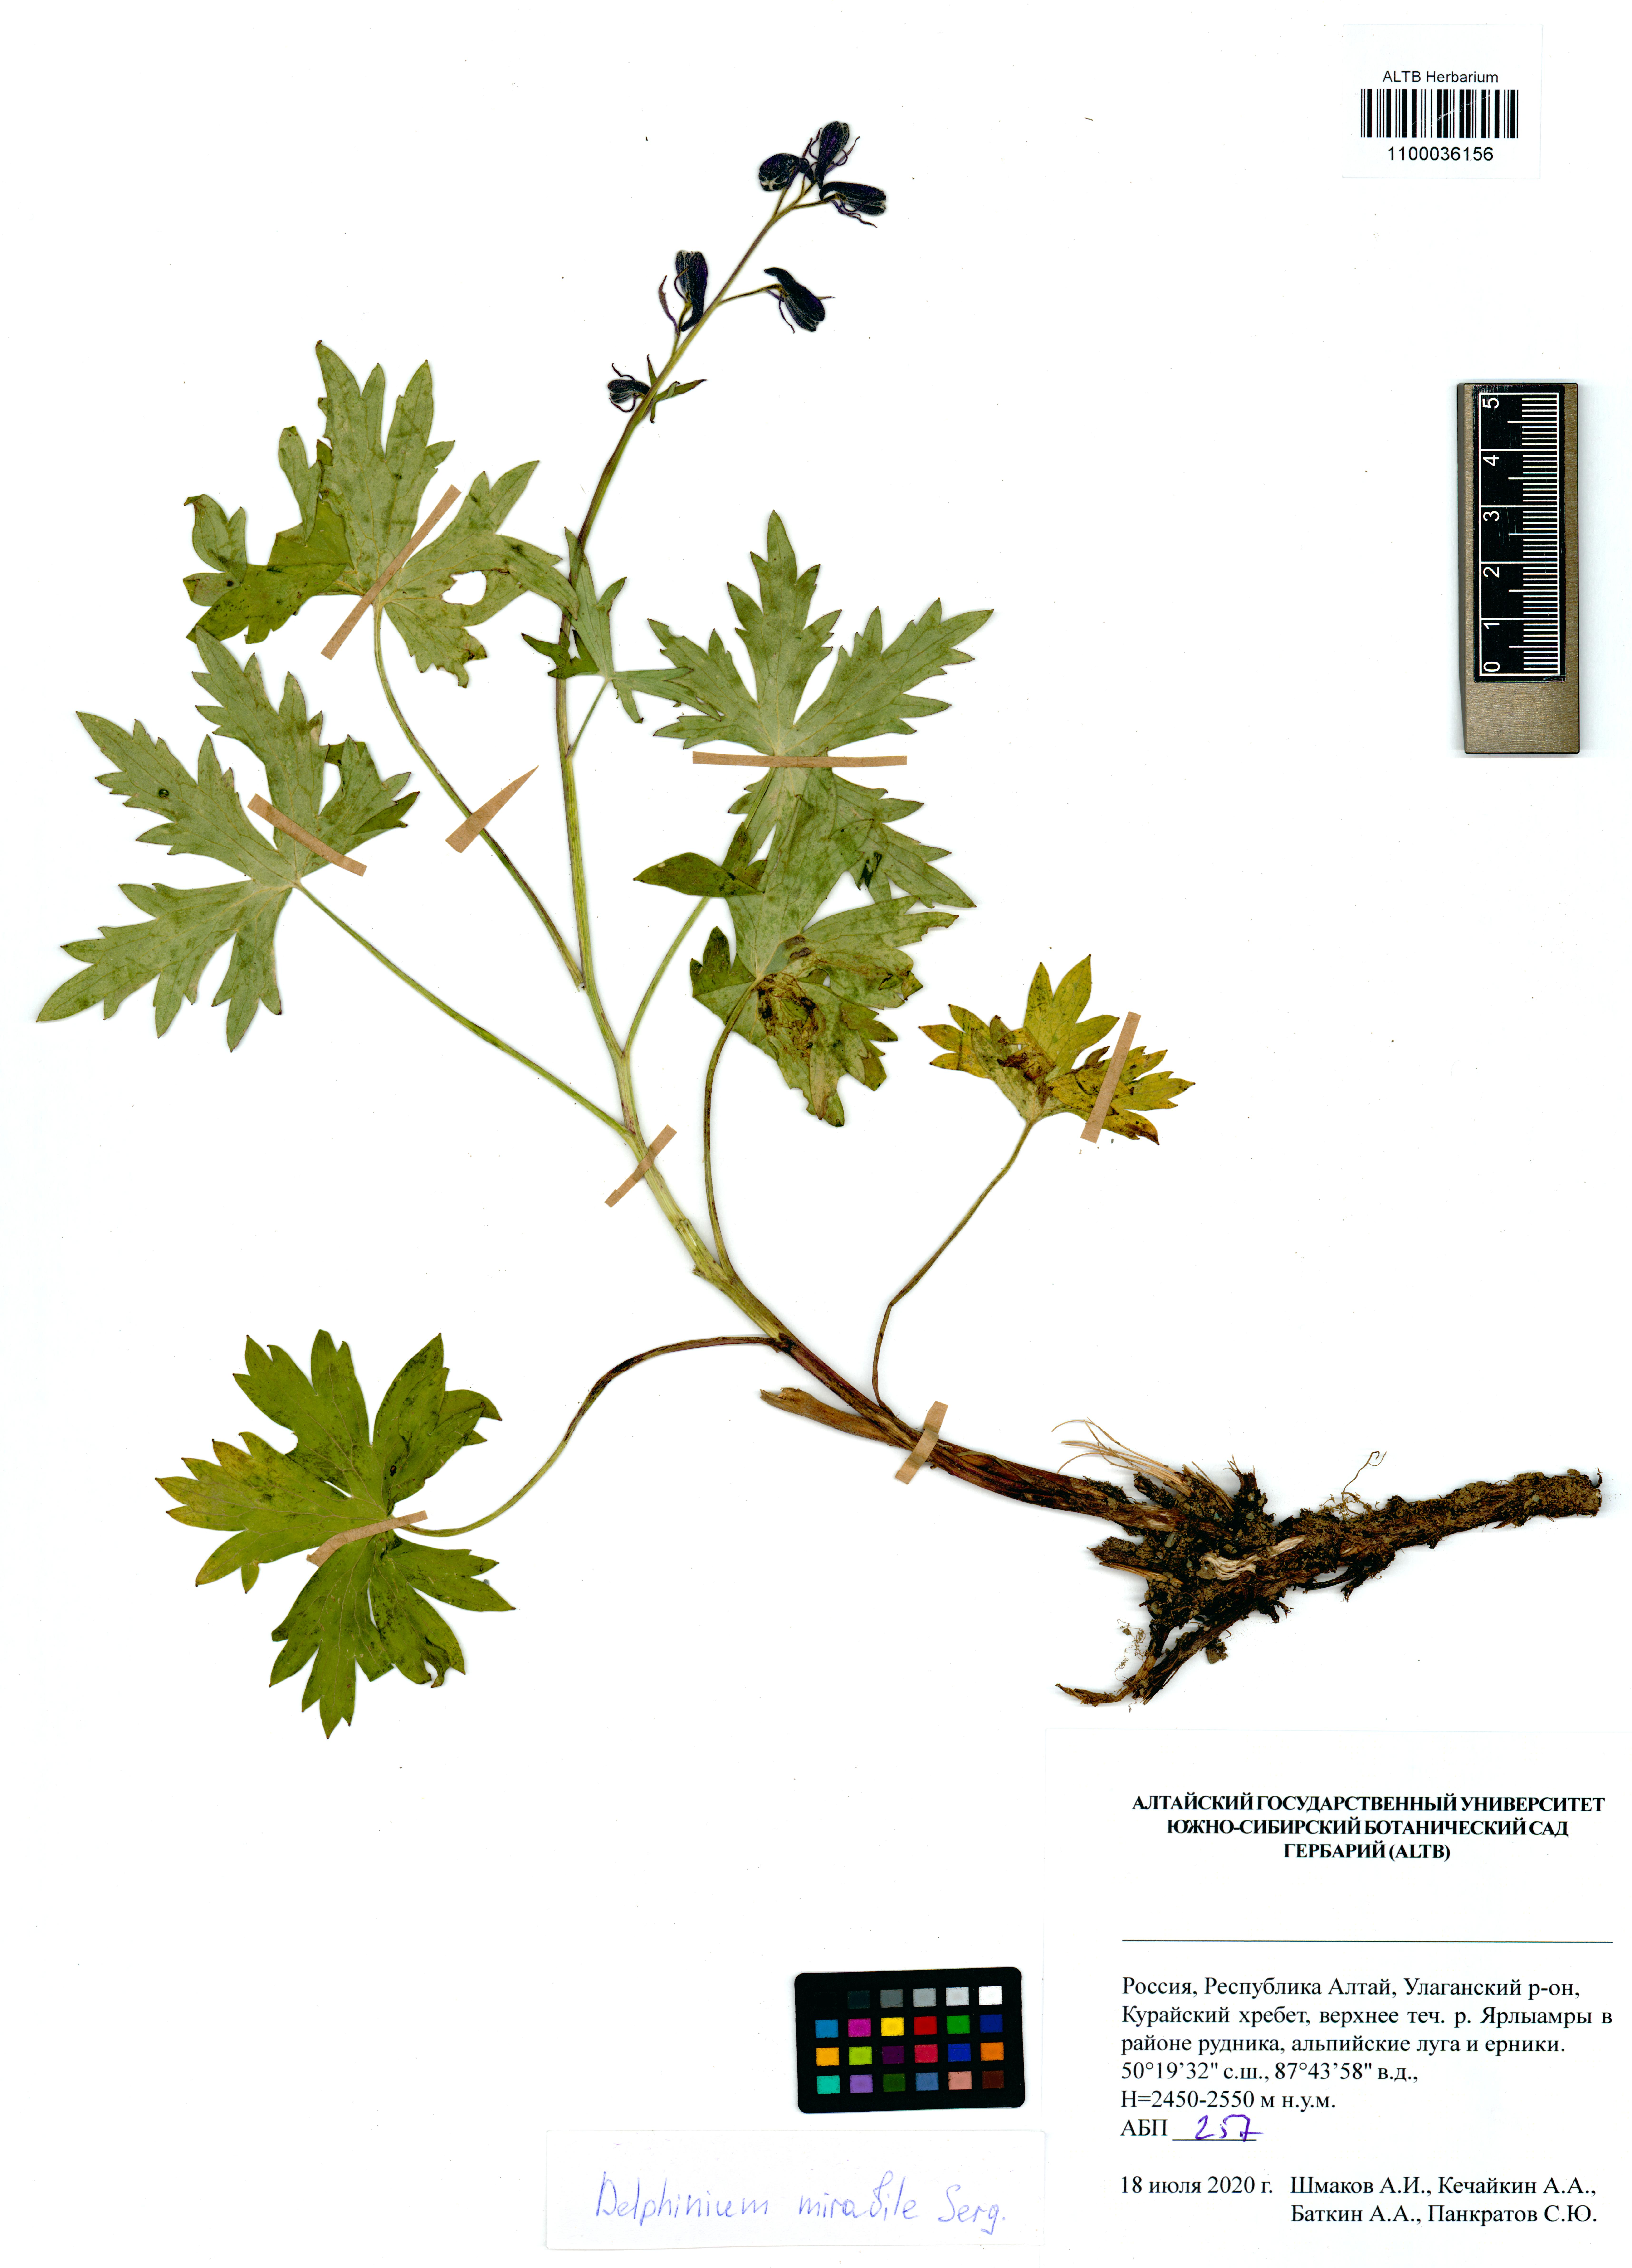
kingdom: Plantae
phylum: Tracheophyta
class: Magnoliopsida
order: Ranunculales
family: Ranunculaceae
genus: Delphinium
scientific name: Delphinium mirabile
